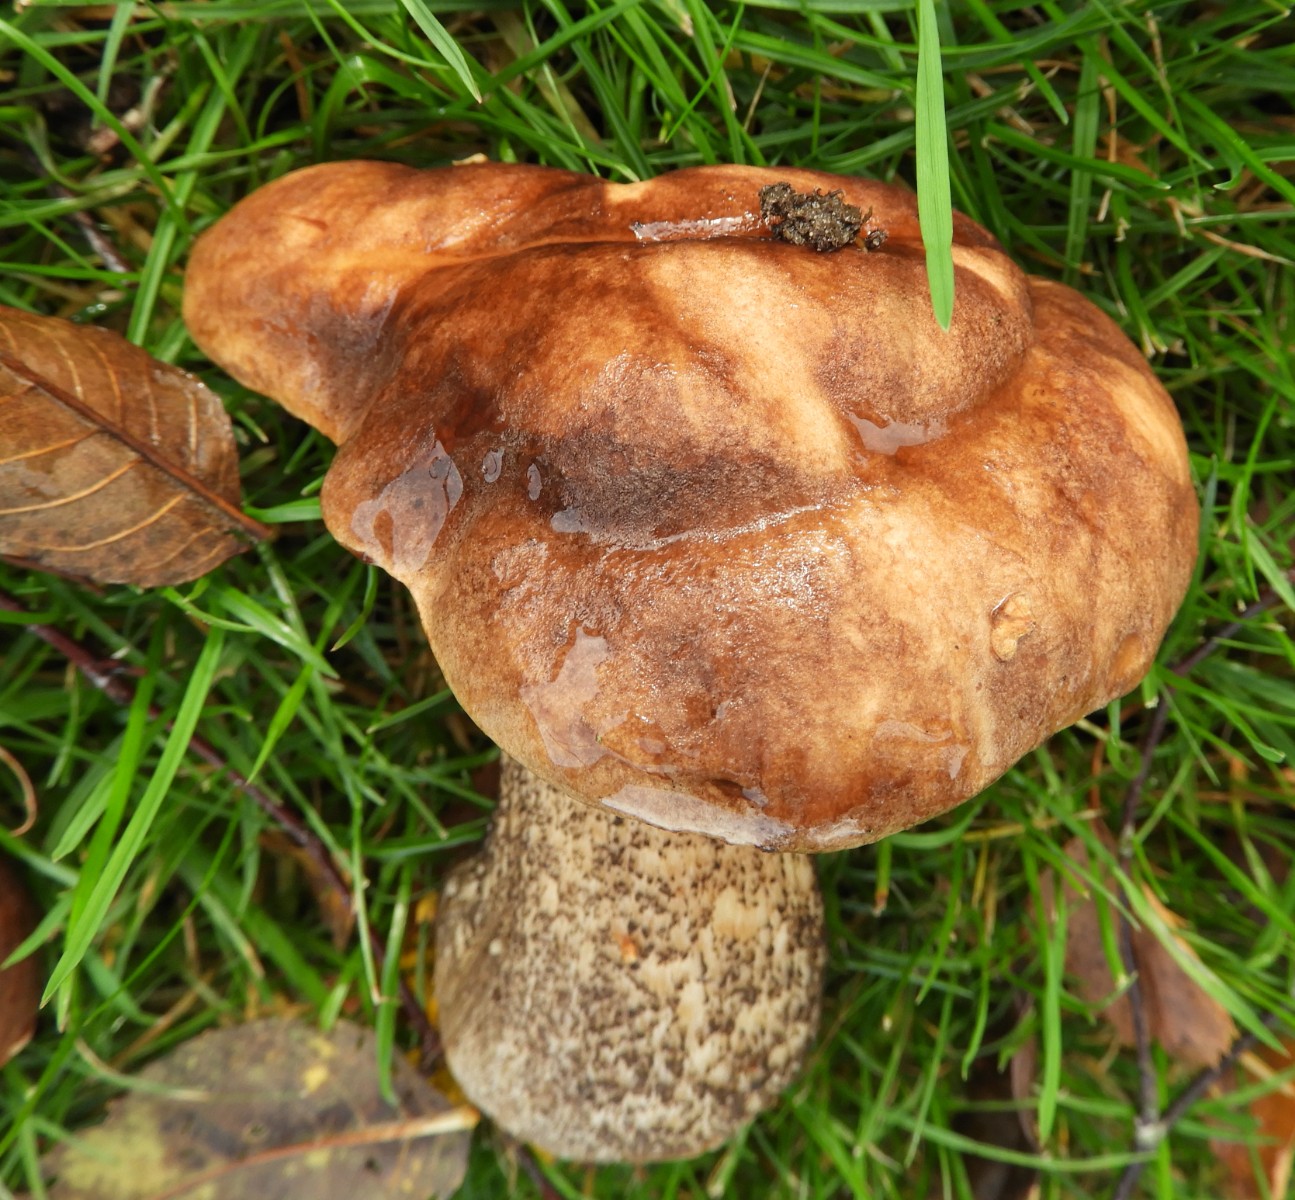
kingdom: Fungi
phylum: Basidiomycota
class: Agaricomycetes
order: Boletales
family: Boletaceae
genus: Leccinum
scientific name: Leccinum scabrum
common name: brun skælrørhat
